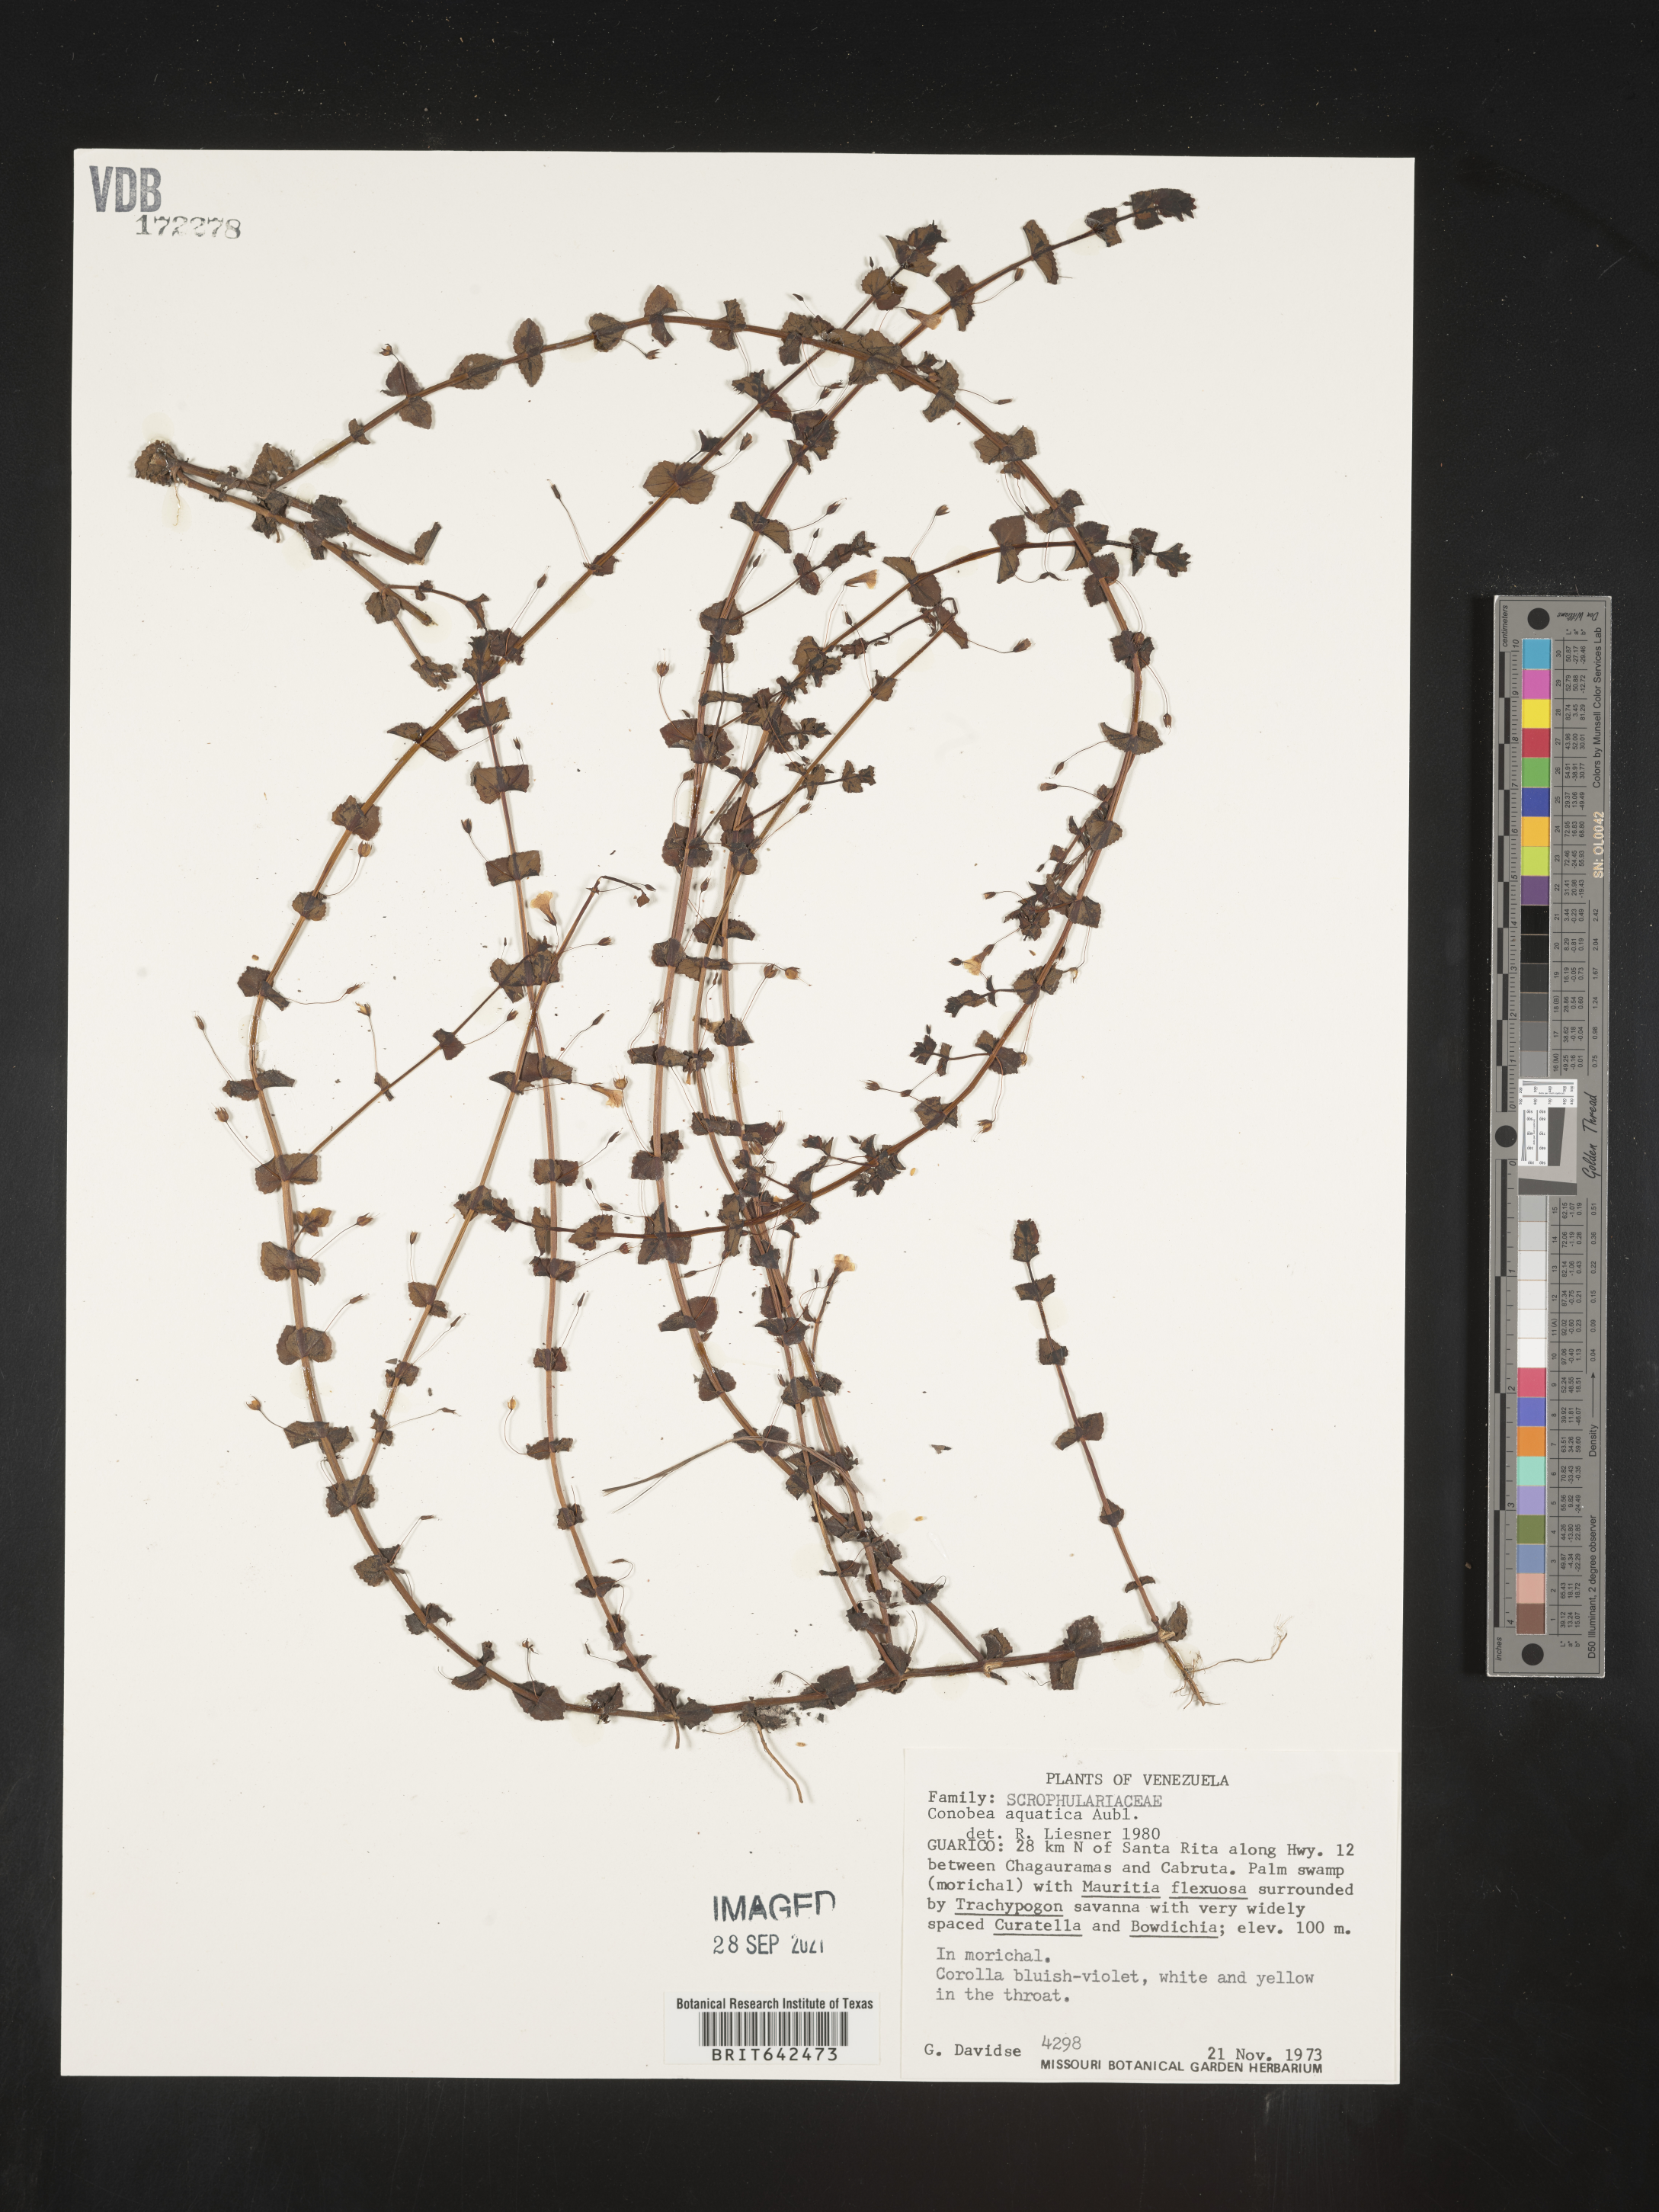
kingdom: Plantae
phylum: Tracheophyta
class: Magnoliopsida
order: Lamiales
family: Plantaginaceae
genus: Conobea
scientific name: Conobea
